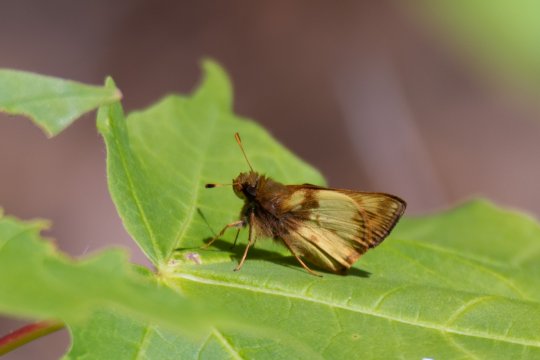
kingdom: Animalia
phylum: Arthropoda
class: Insecta
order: Lepidoptera
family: Hesperiidae
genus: Lon
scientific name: Lon zabulon
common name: Zabulon Skipper
